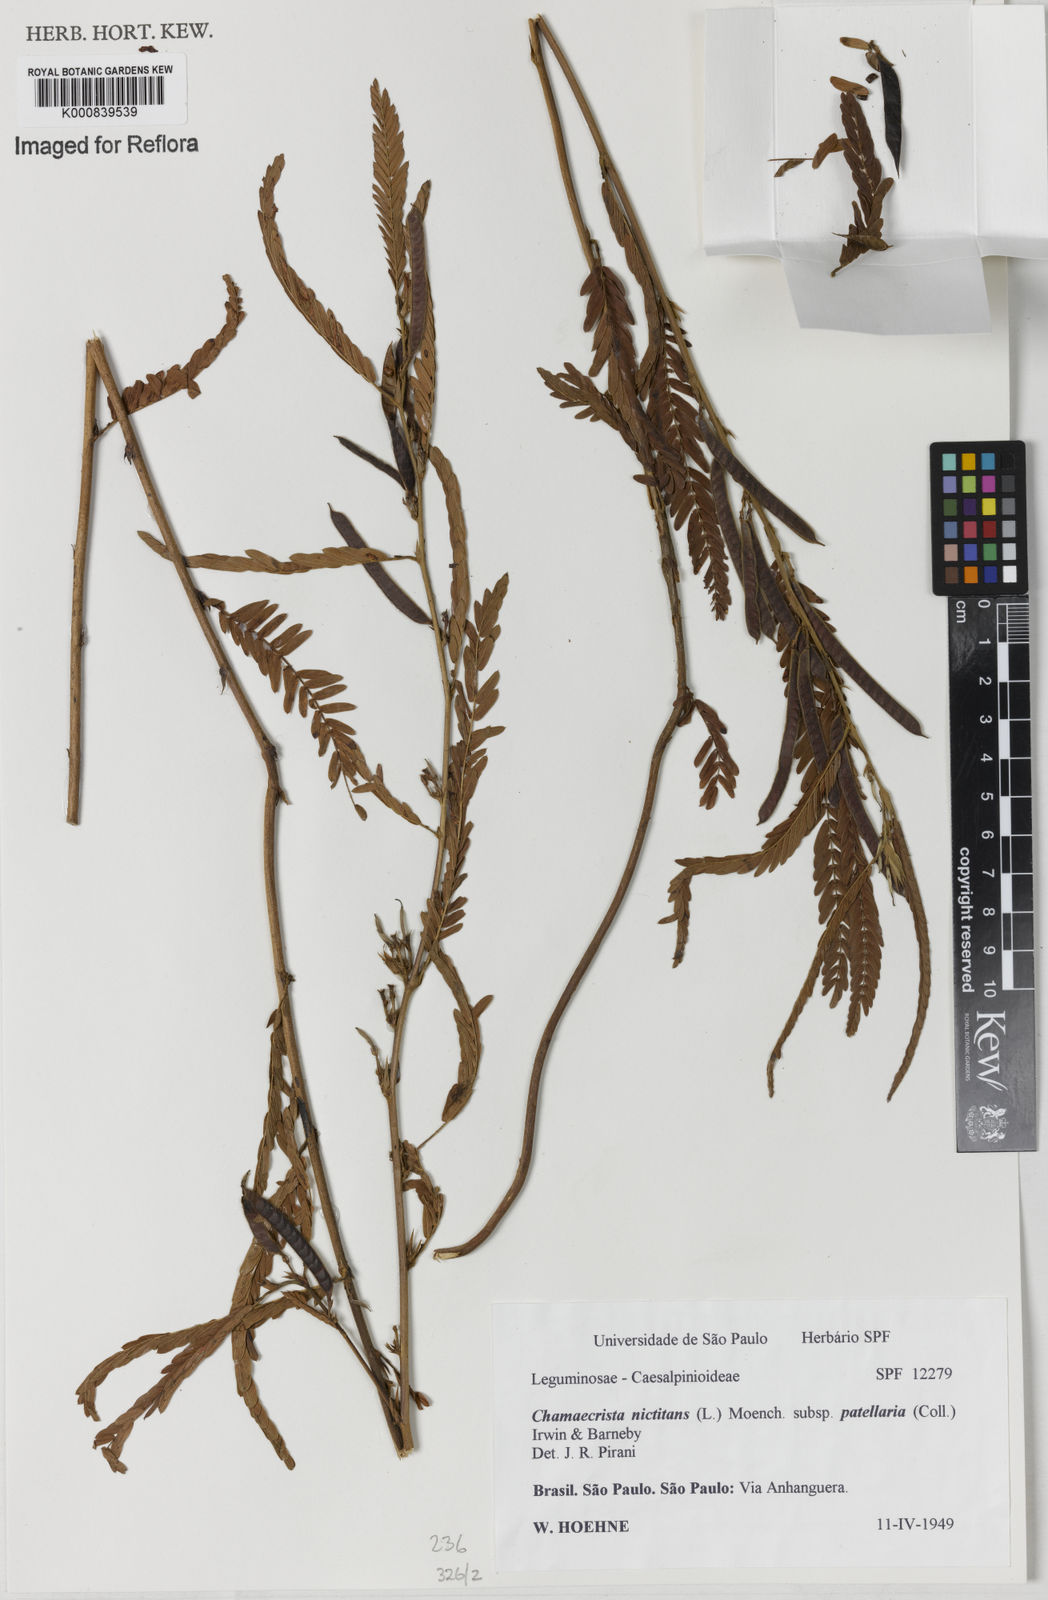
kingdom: Plantae
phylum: Tracheophyta
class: Magnoliopsida
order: Fabales
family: Fabaceae
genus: Chamaecrista
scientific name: Chamaecrista nictitans
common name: Sensitive cassia
